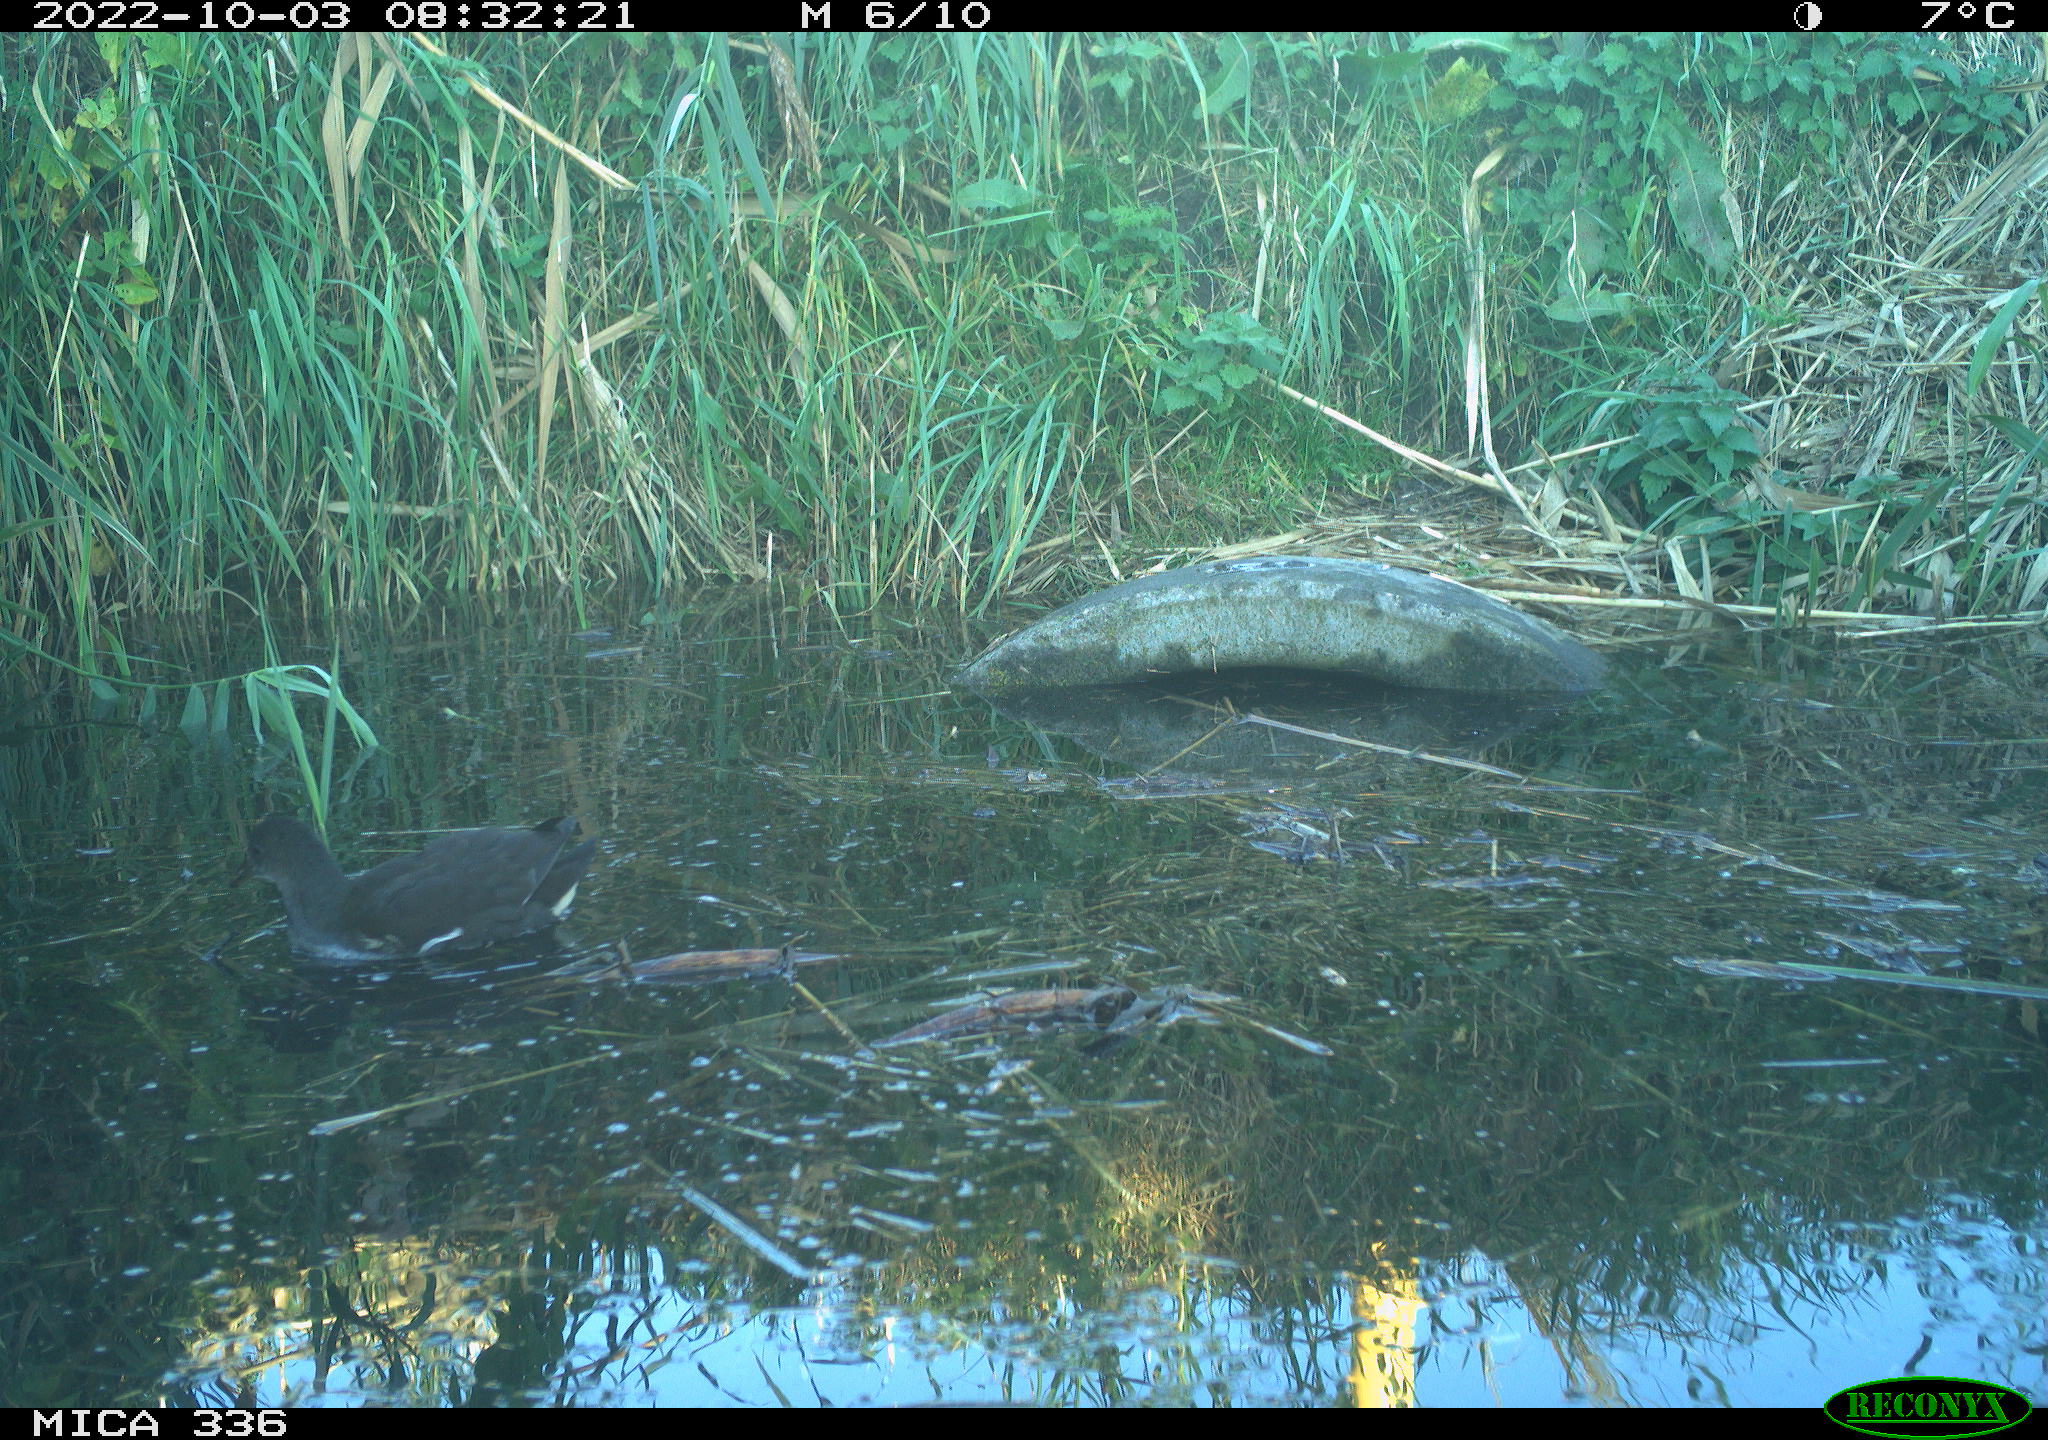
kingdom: Animalia
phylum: Chordata
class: Aves
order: Gruiformes
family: Rallidae
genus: Gallinula
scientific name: Gallinula chloropus
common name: Common moorhen
